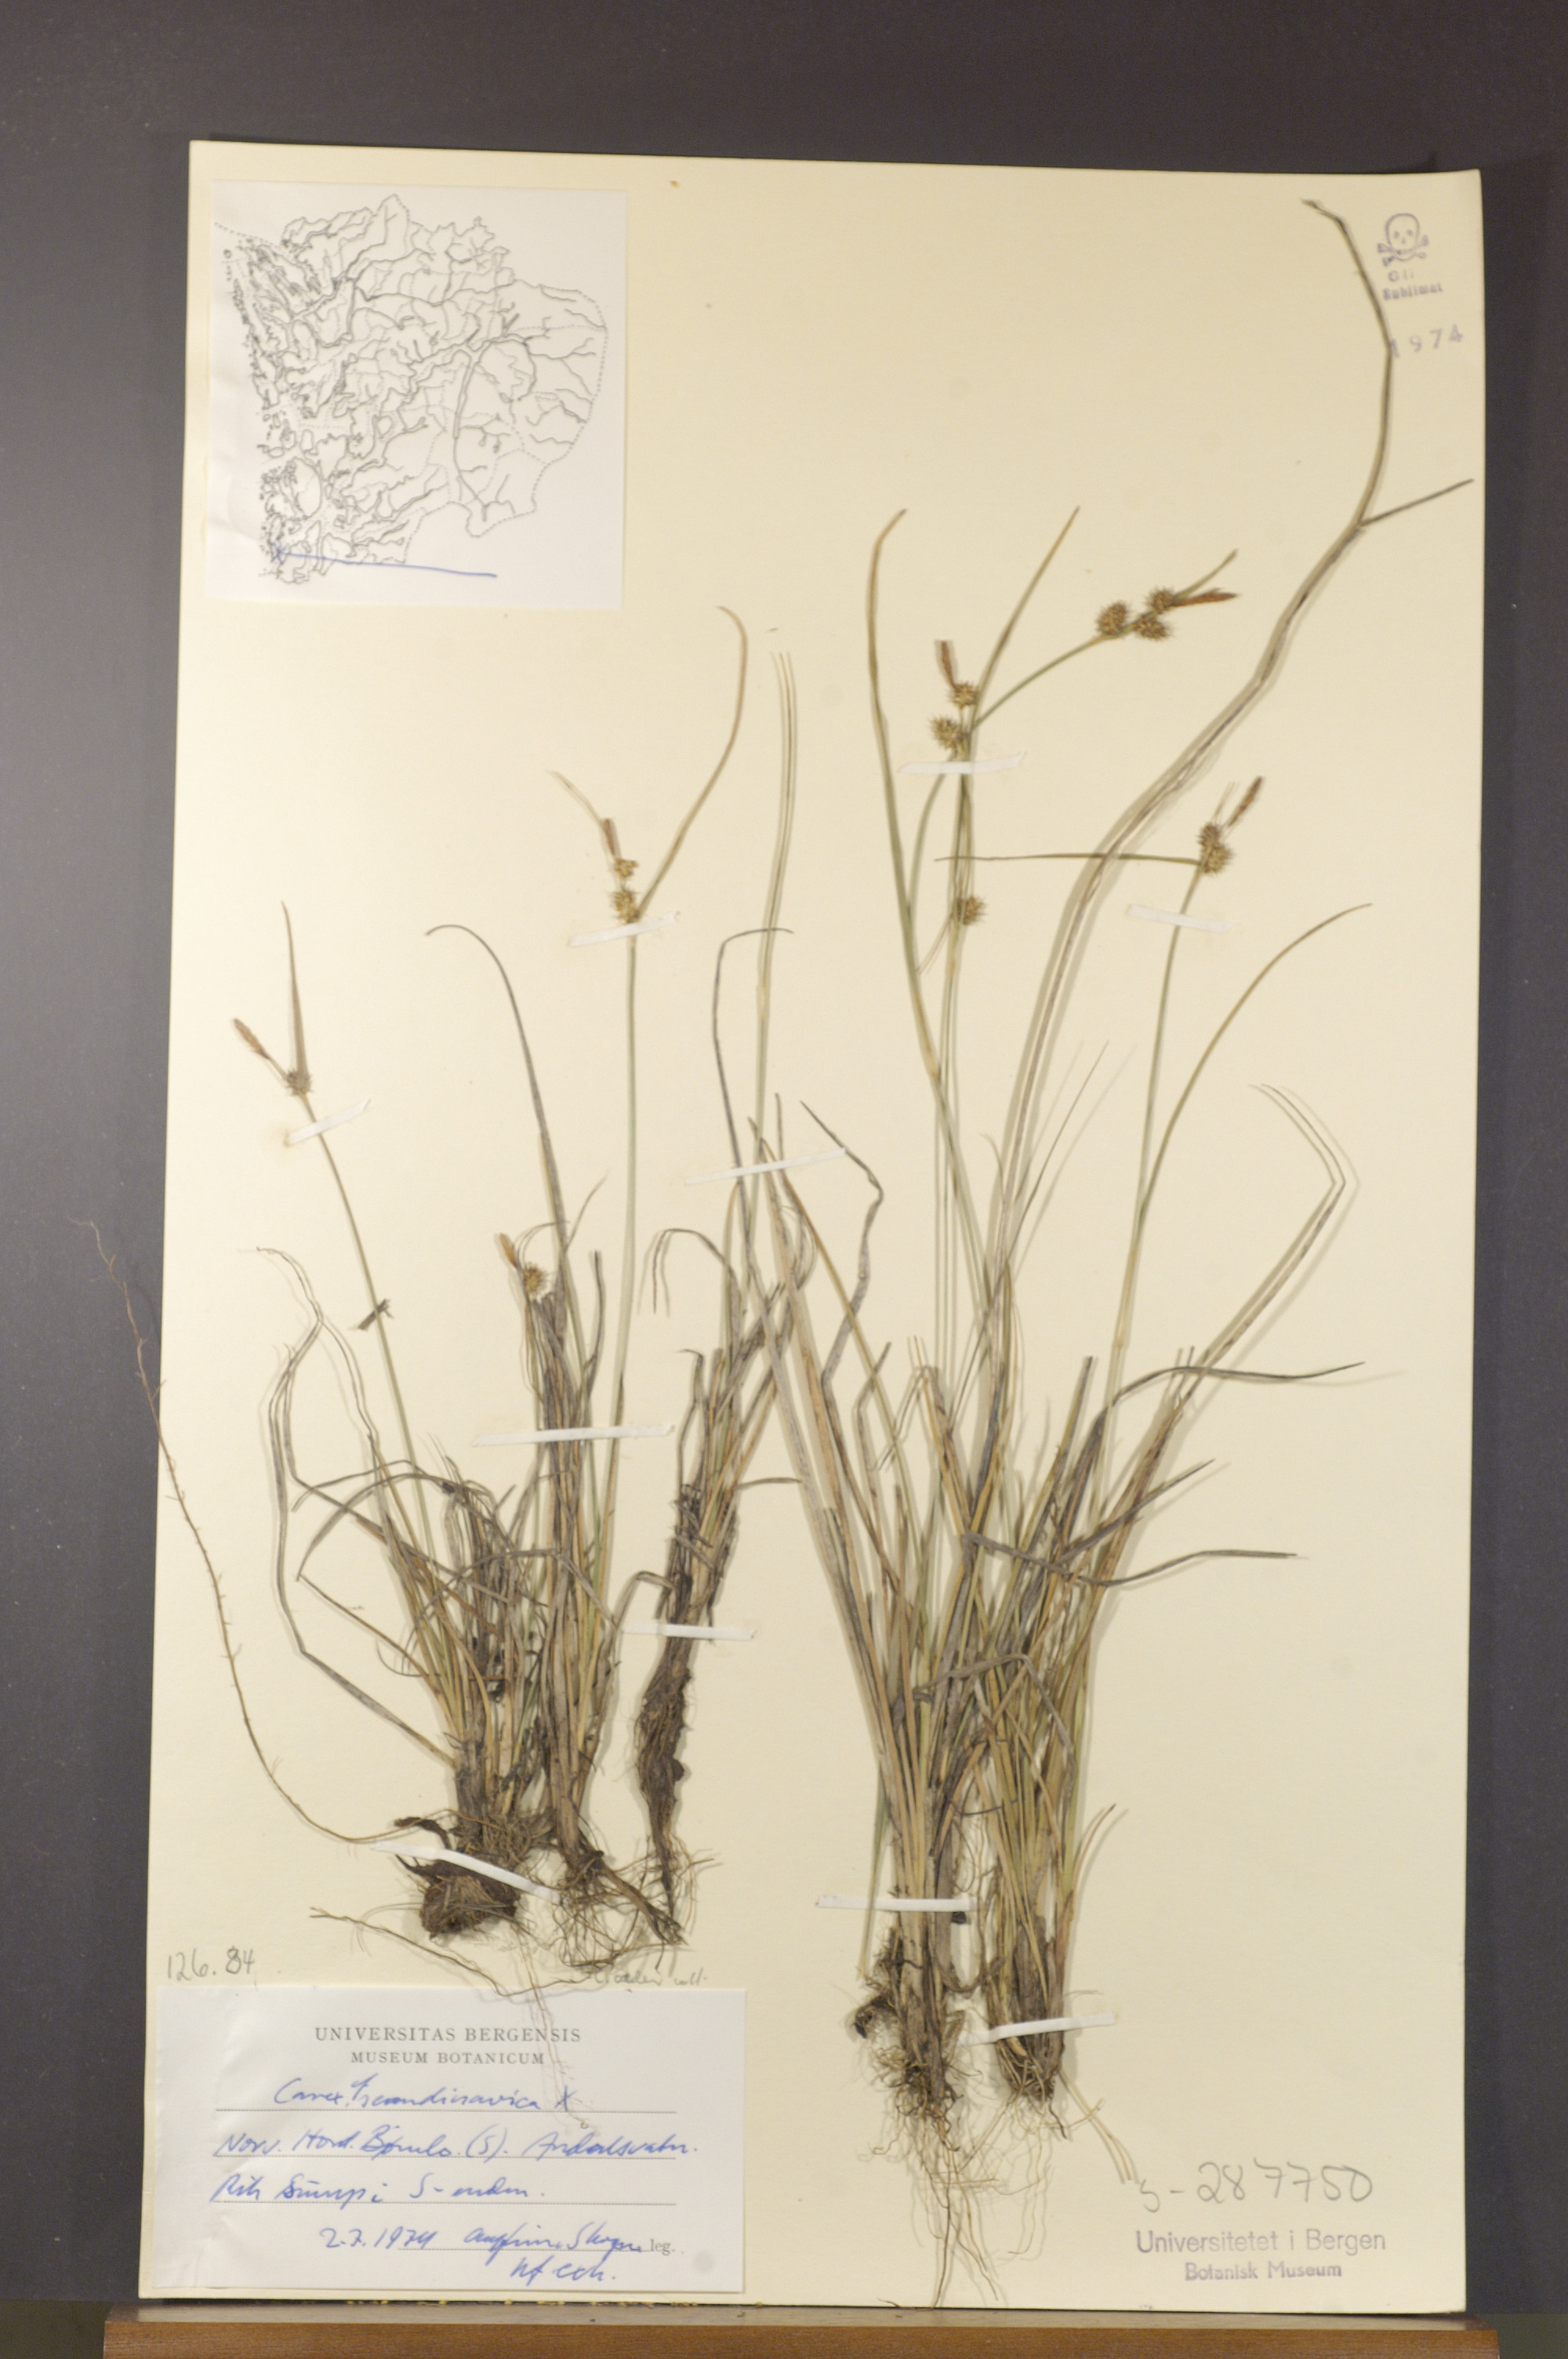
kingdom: Plantae
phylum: Tracheophyta
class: Liliopsida
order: Poales
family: Cyperaceae
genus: Carex
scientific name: Carex oederi
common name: Common & small-fruited yellow-sedge
